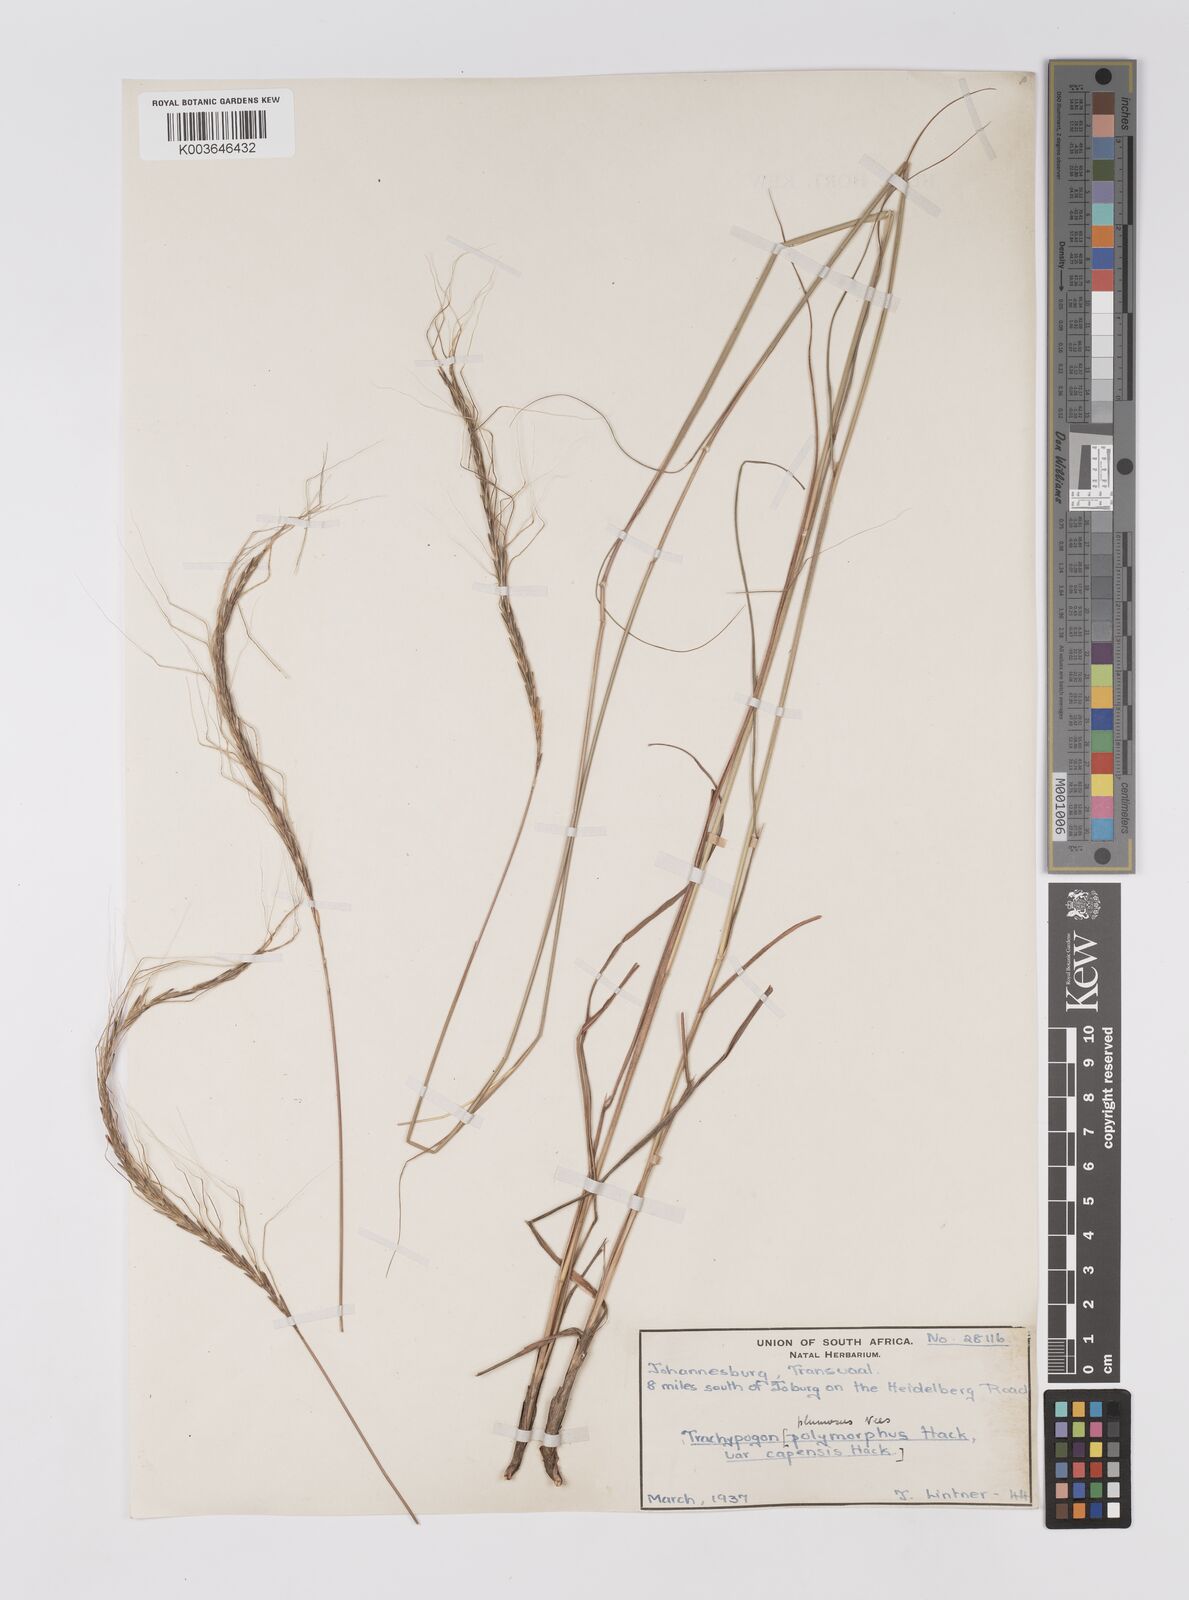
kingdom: Plantae
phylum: Tracheophyta
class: Liliopsida
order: Poales
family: Poaceae
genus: Trachypogon
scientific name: Trachypogon spicatus
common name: Crinkle-awn
